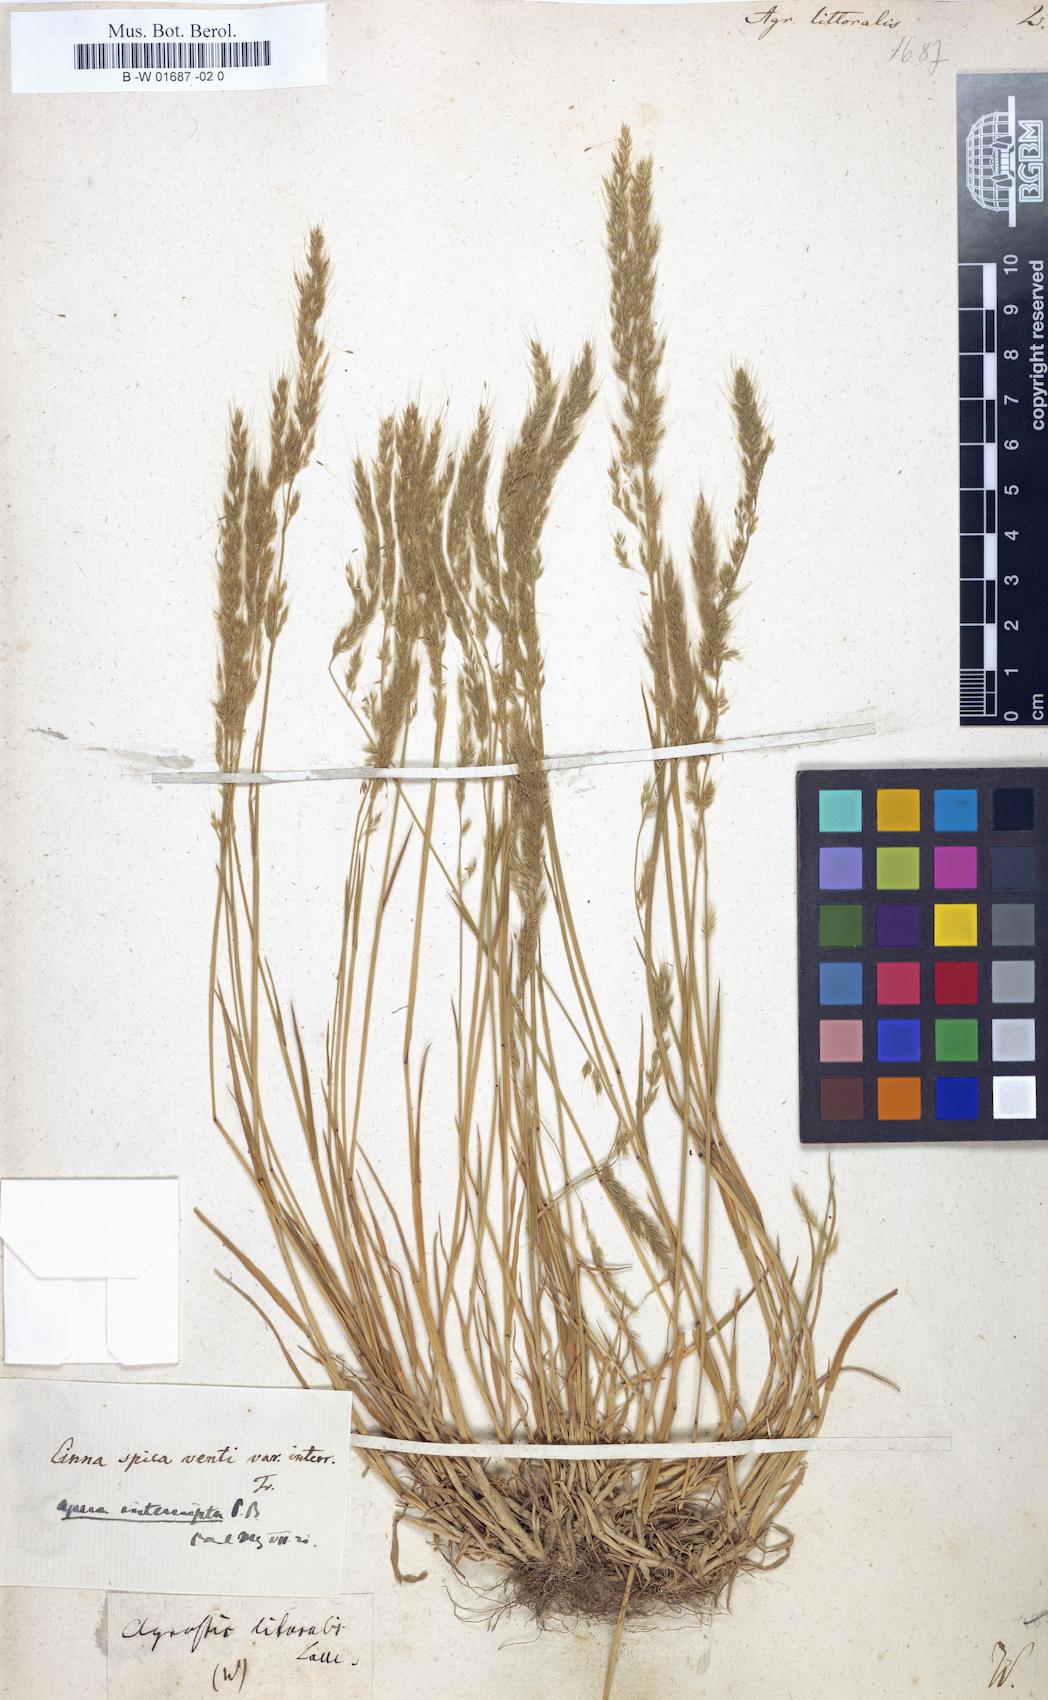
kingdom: Plantae
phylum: Tracheophyta
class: Liliopsida
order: Poales
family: Poaceae
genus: Sporobolus
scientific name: Sporobolus virginicus
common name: Beach dropseed
